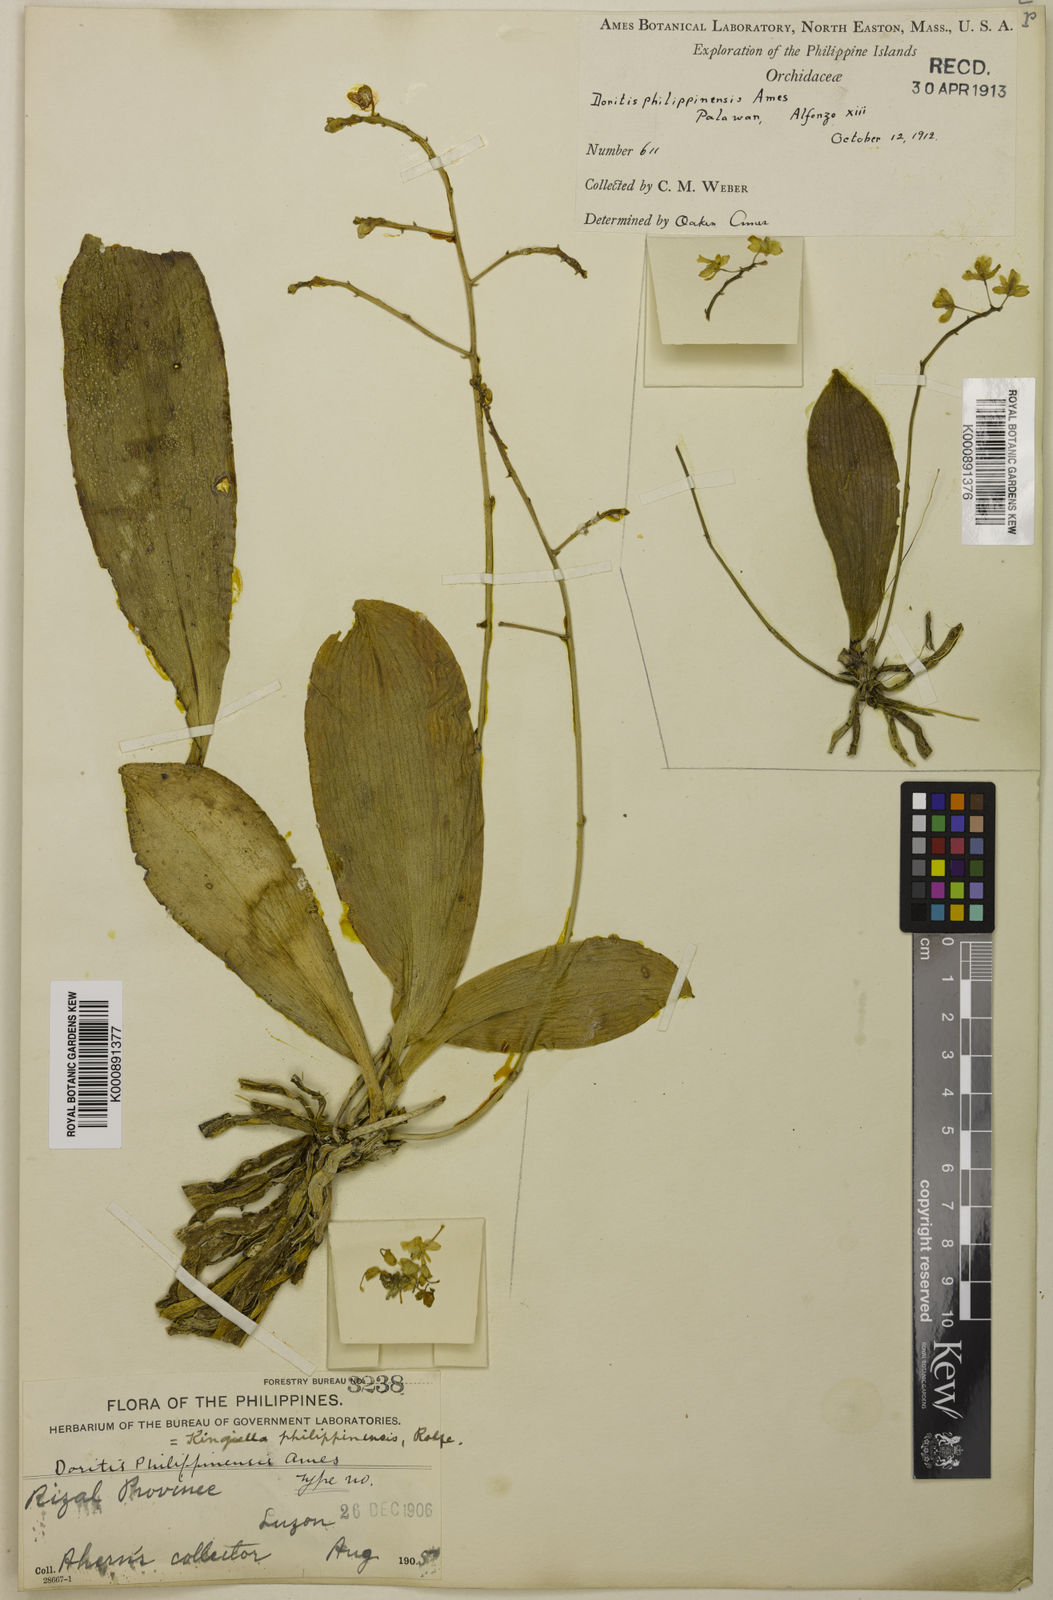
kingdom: Plantae
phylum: Tracheophyta
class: Liliopsida
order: Asparagales
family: Orchidaceae
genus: Phalaenopsis
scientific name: Phalaenopsis parishii
